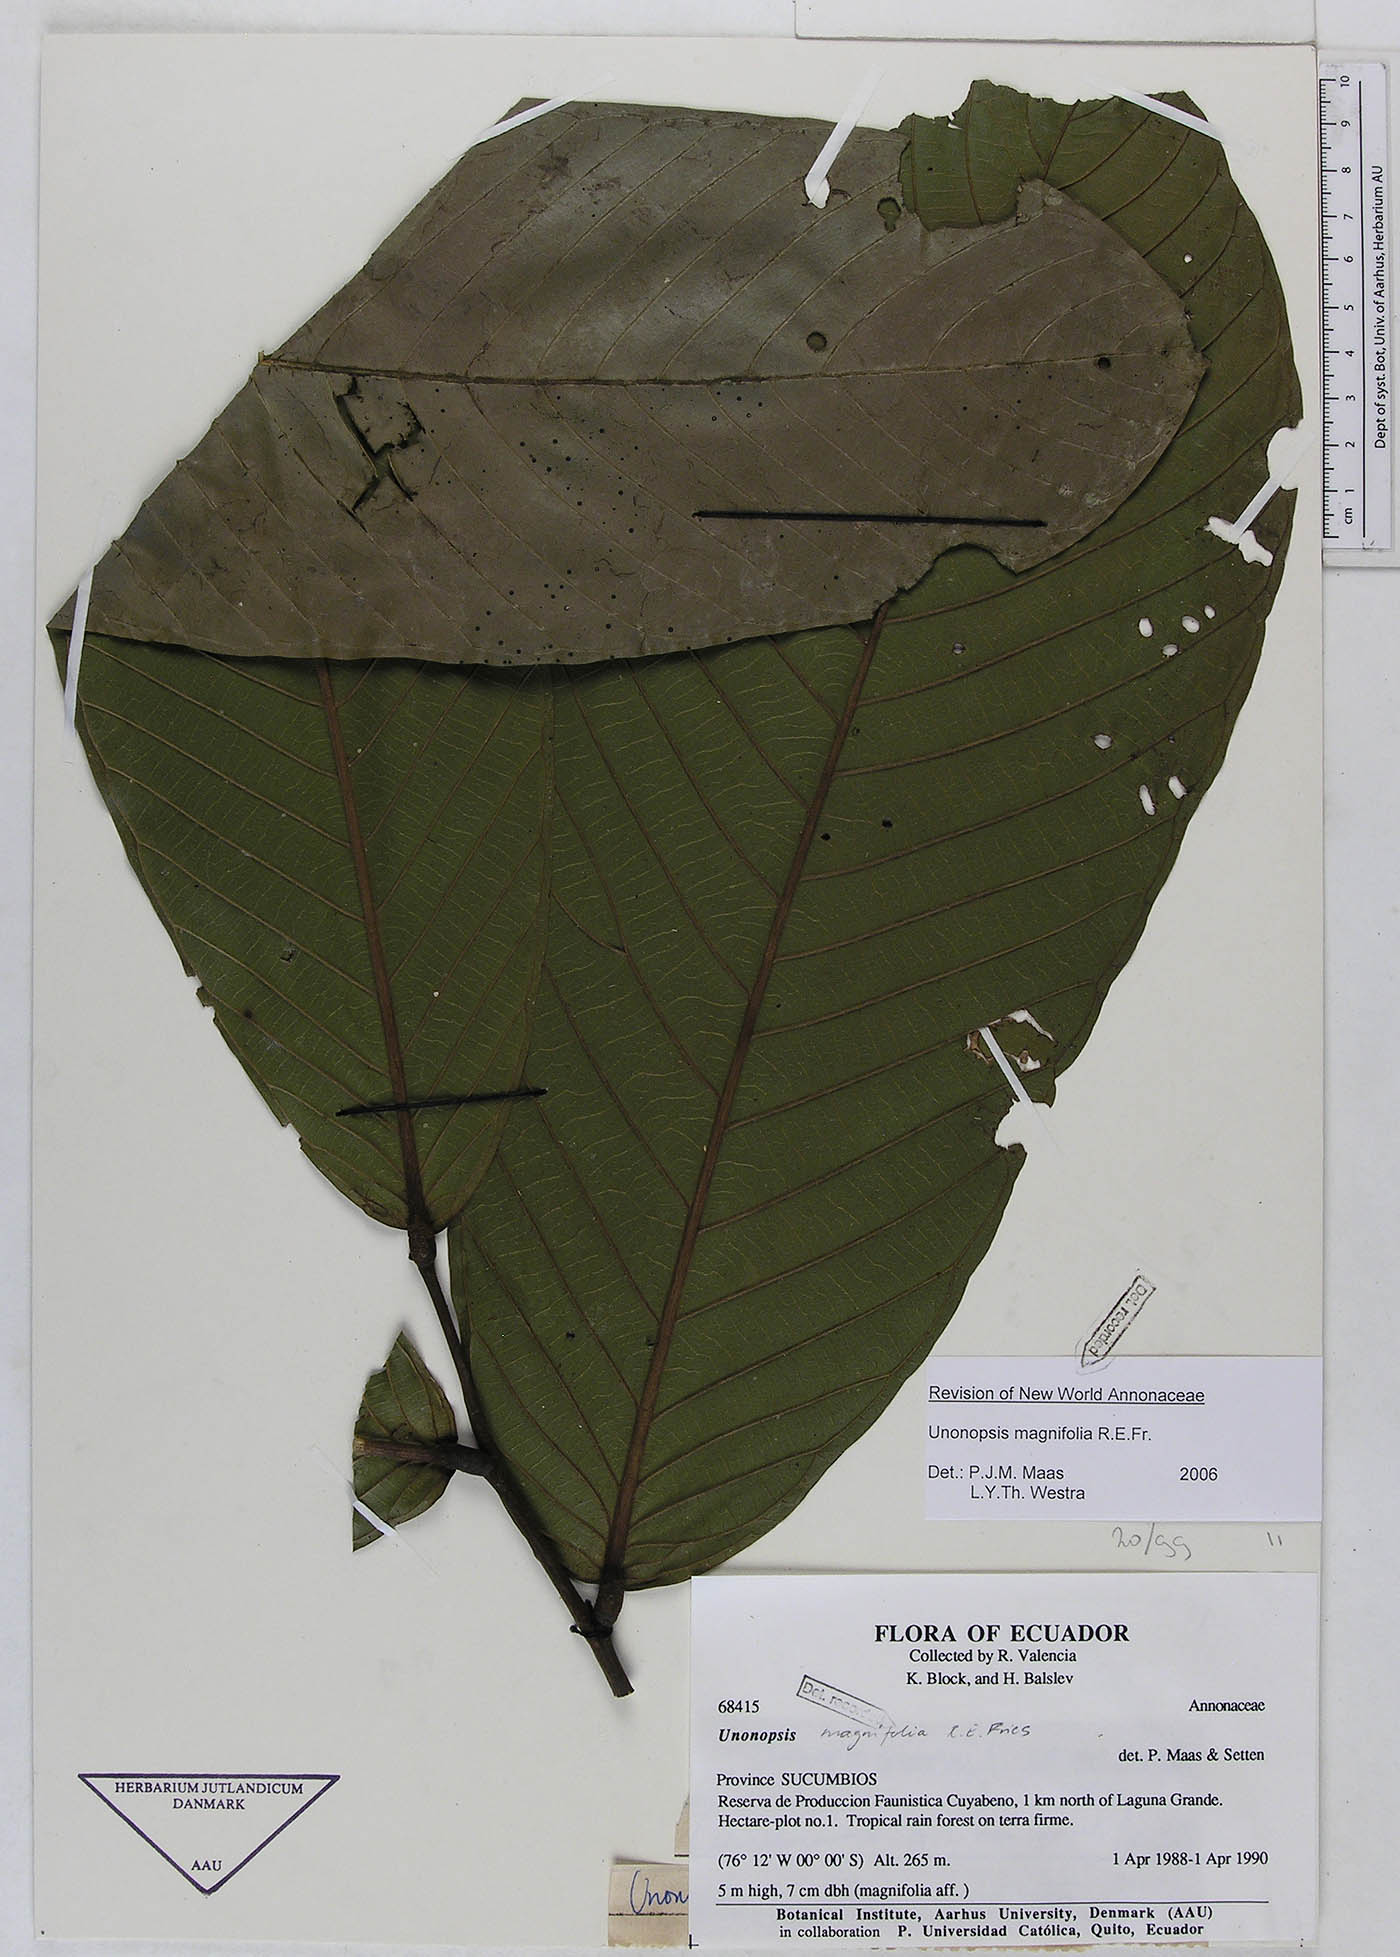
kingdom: Plantae
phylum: Tracheophyta
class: Magnoliopsida
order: Magnoliales
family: Annonaceae
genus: Unonopsis
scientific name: Unonopsis magnifolia
